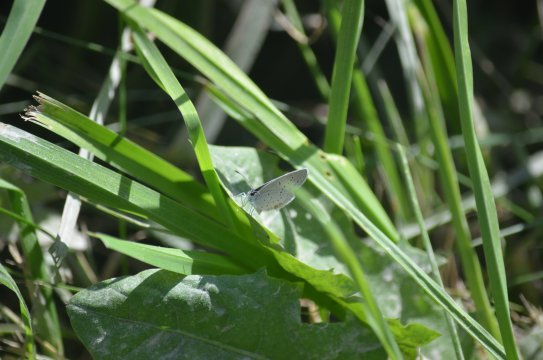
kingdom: Animalia
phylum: Arthropoda
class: Insecta
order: Lepidoptera
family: Lycaenidae
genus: Elkalyce
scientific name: Elkalyce comyntas
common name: Eastern Tailed-Blue
